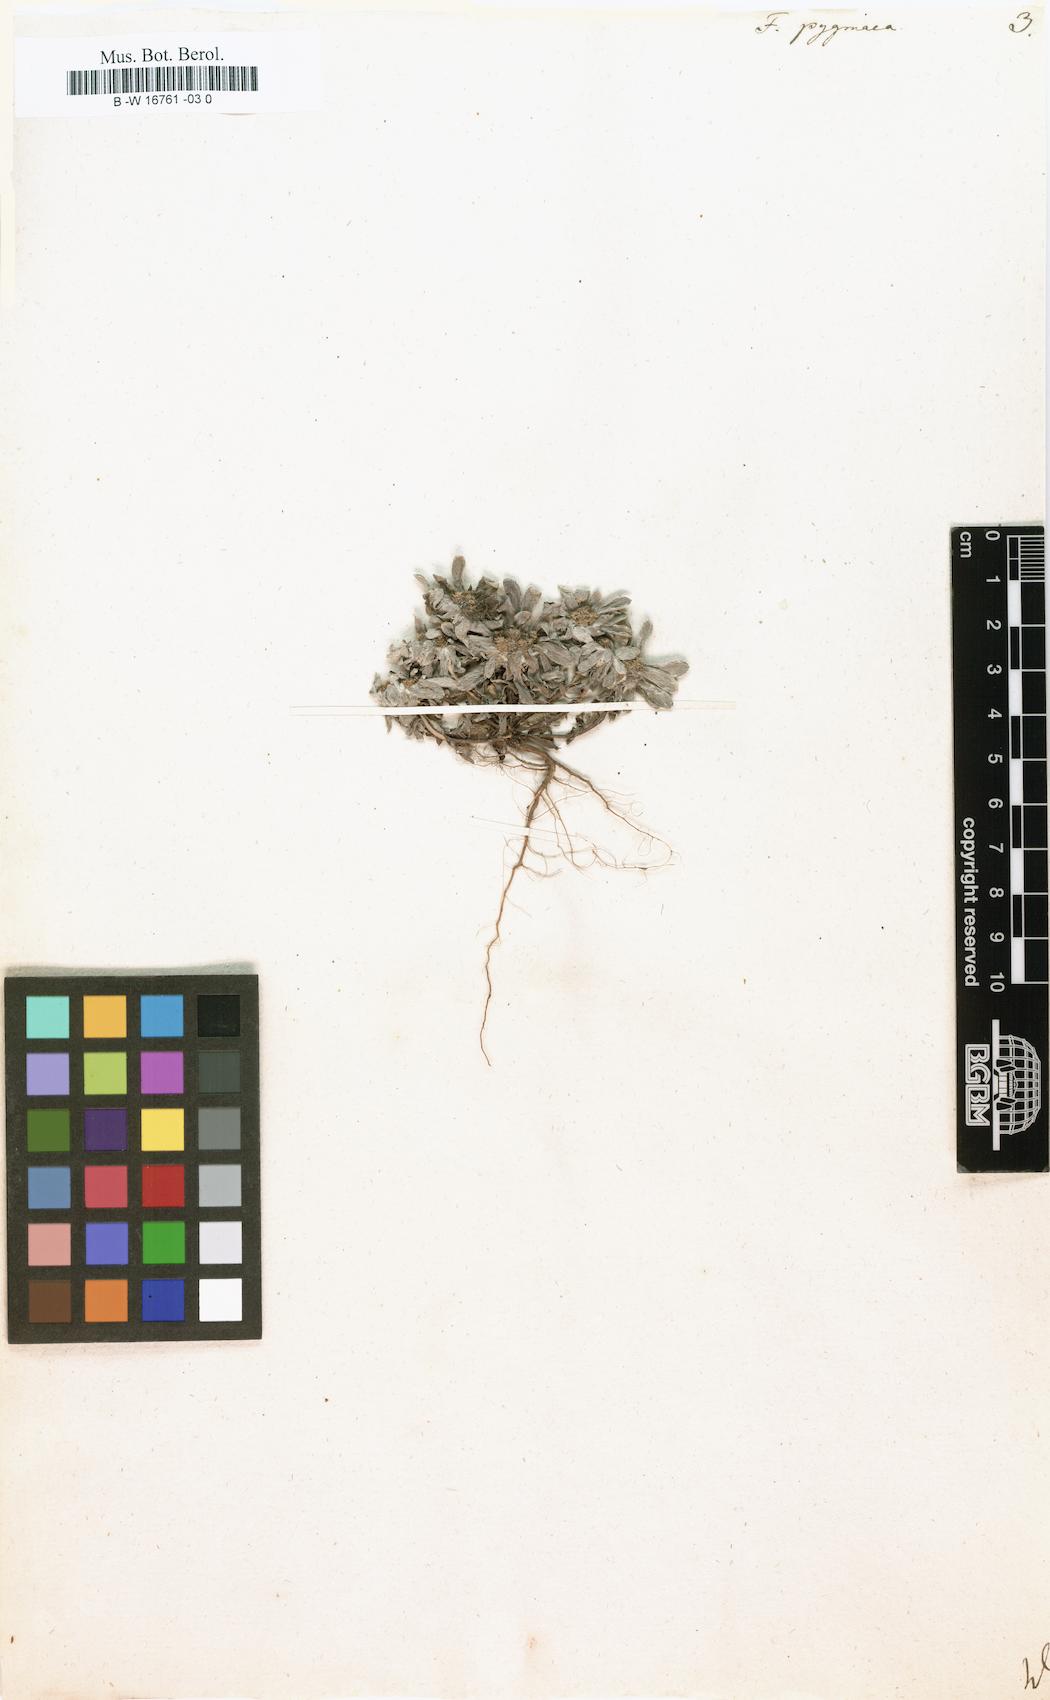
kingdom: Plantae
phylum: Tracheophyta
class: Magnoliopsida
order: Asterales
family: Asteraceae
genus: Filago
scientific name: Filago pygmaea
